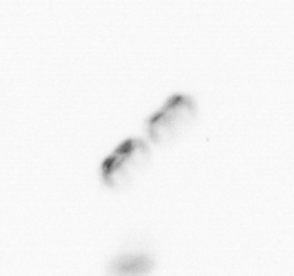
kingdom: Chromista
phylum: Ochrophyta
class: Bacillariophyceae
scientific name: Bacillariophyceae
